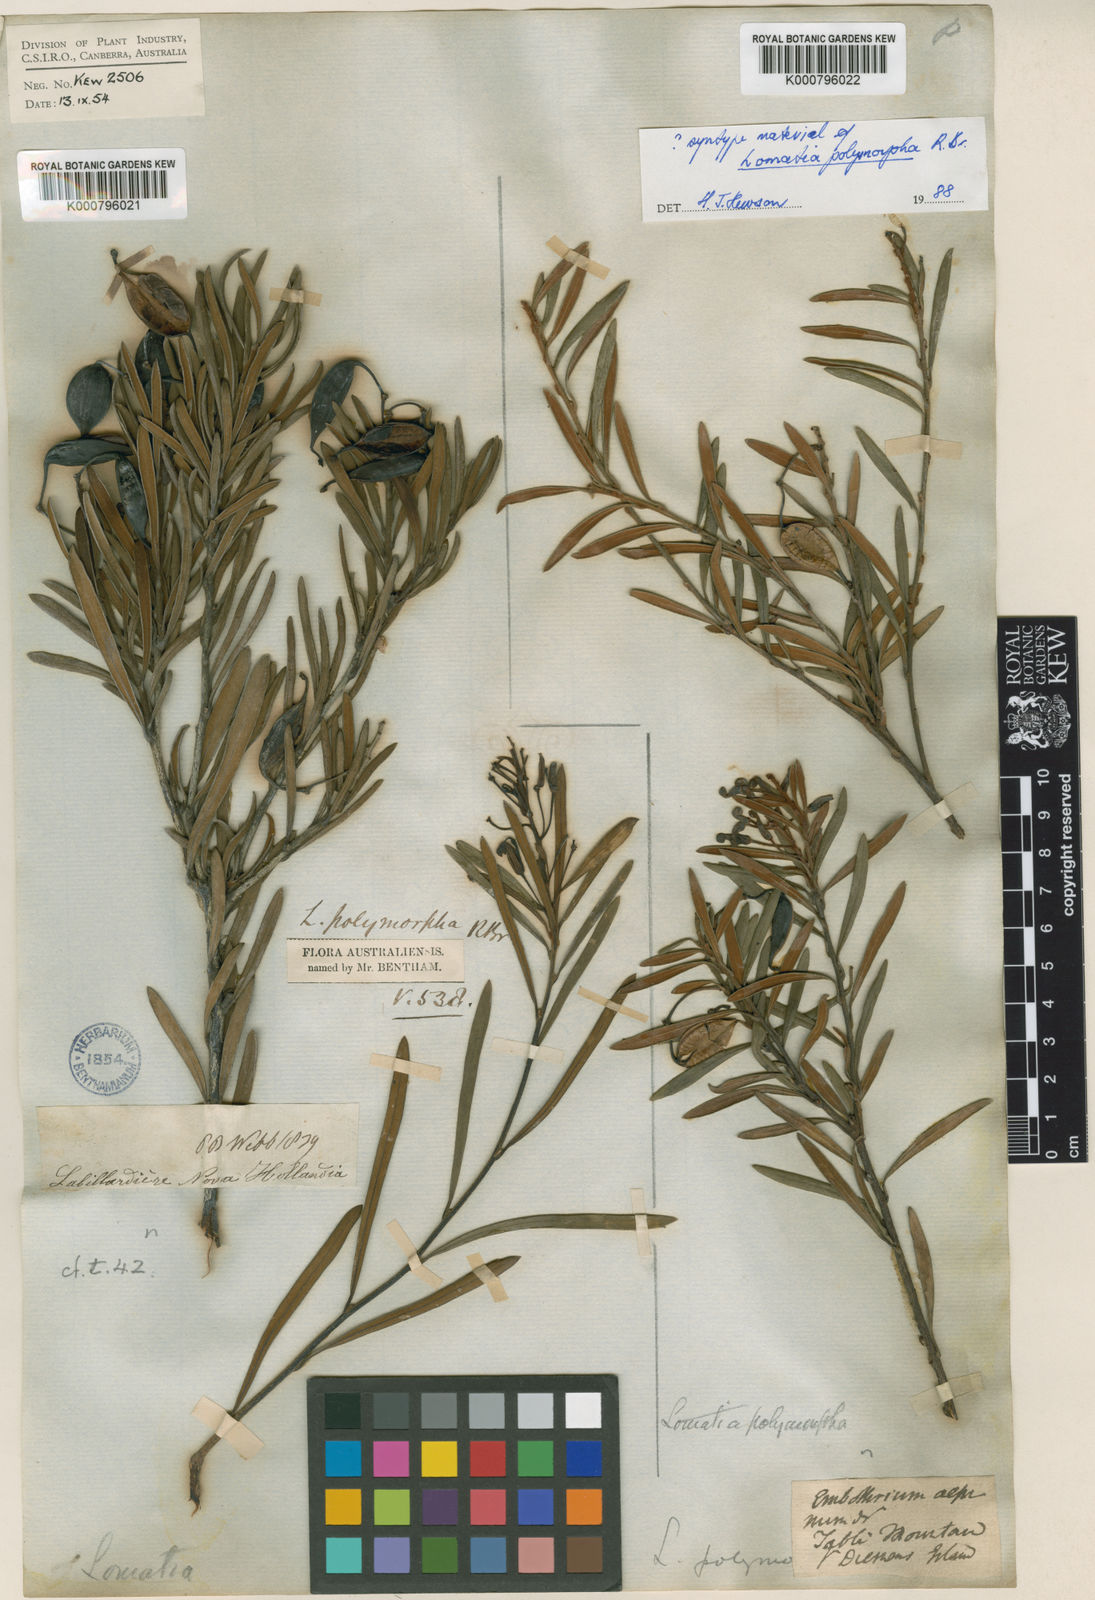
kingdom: Plantae
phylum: Tracheophyta
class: Magnoliopsida
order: Proteales
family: Proteaceae
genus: Lomatia
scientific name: Lomatia polymorpha
